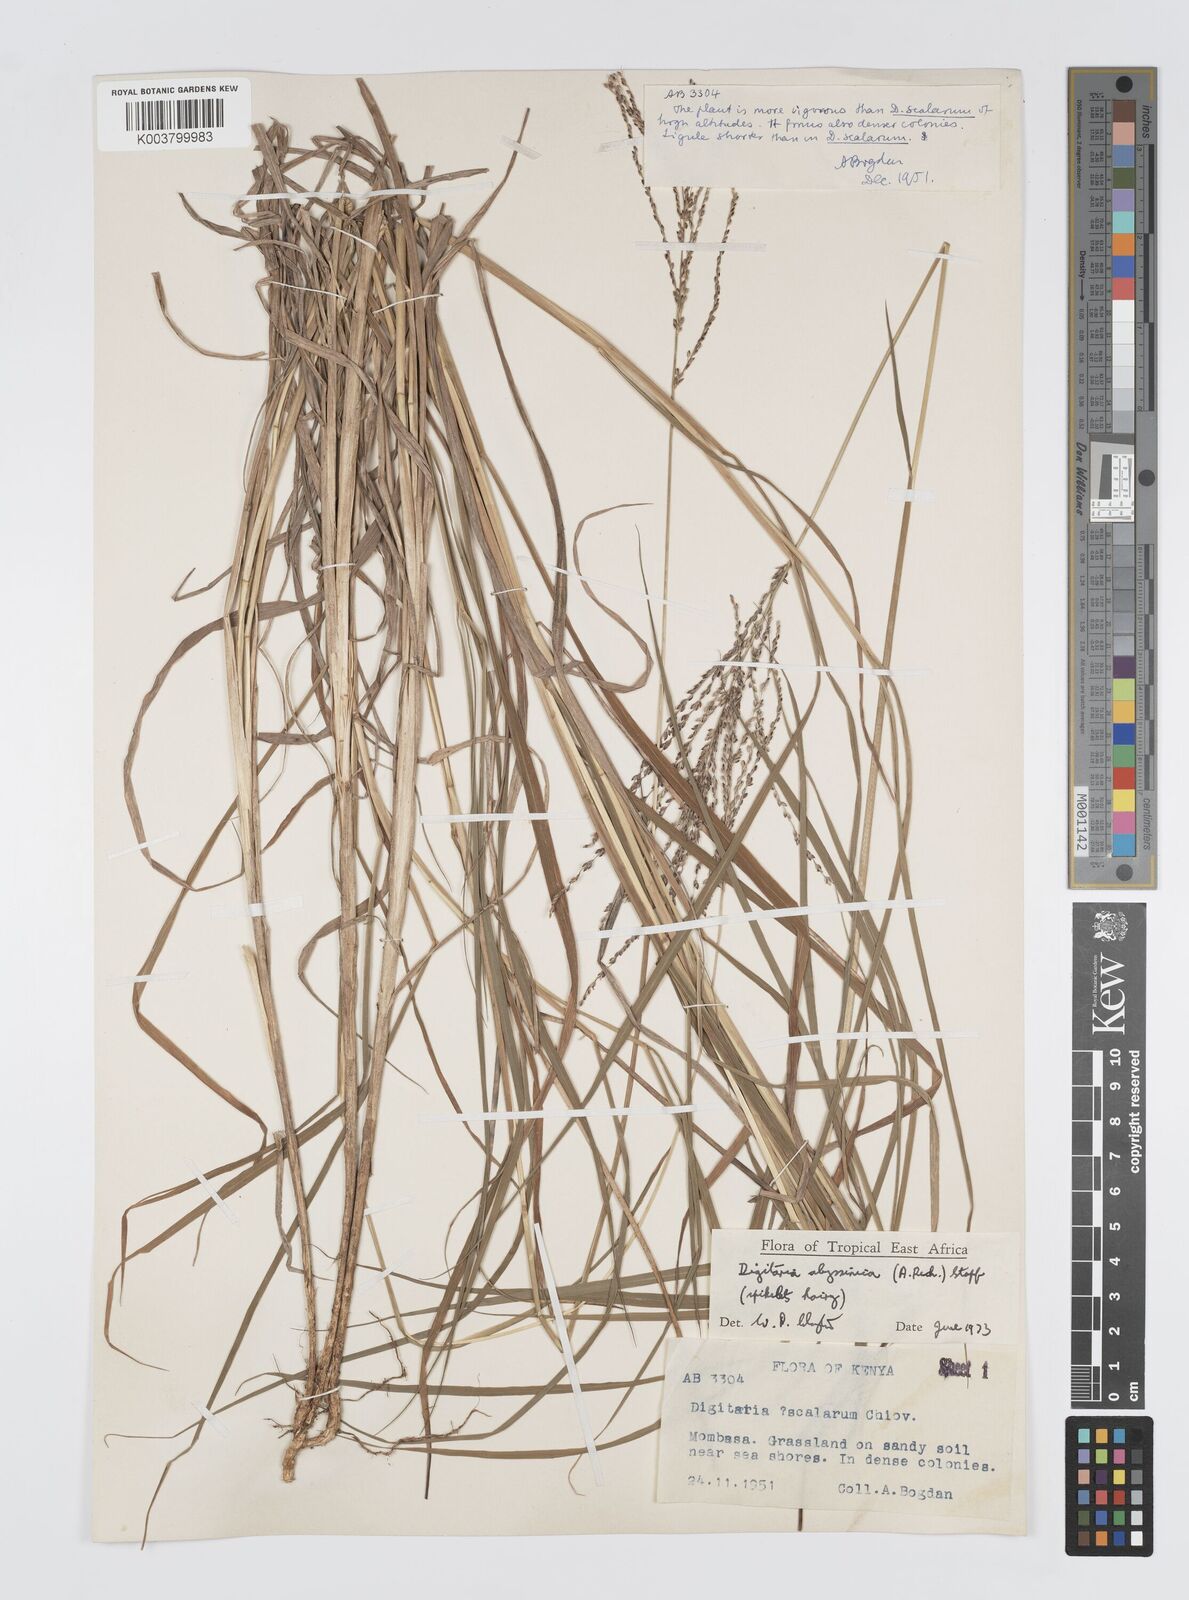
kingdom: Plantae
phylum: Tracheophyta
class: Liliopsida
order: Poales
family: Poaceae
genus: Digitaria
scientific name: Digitaria abyssinica
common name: African couchgrass
